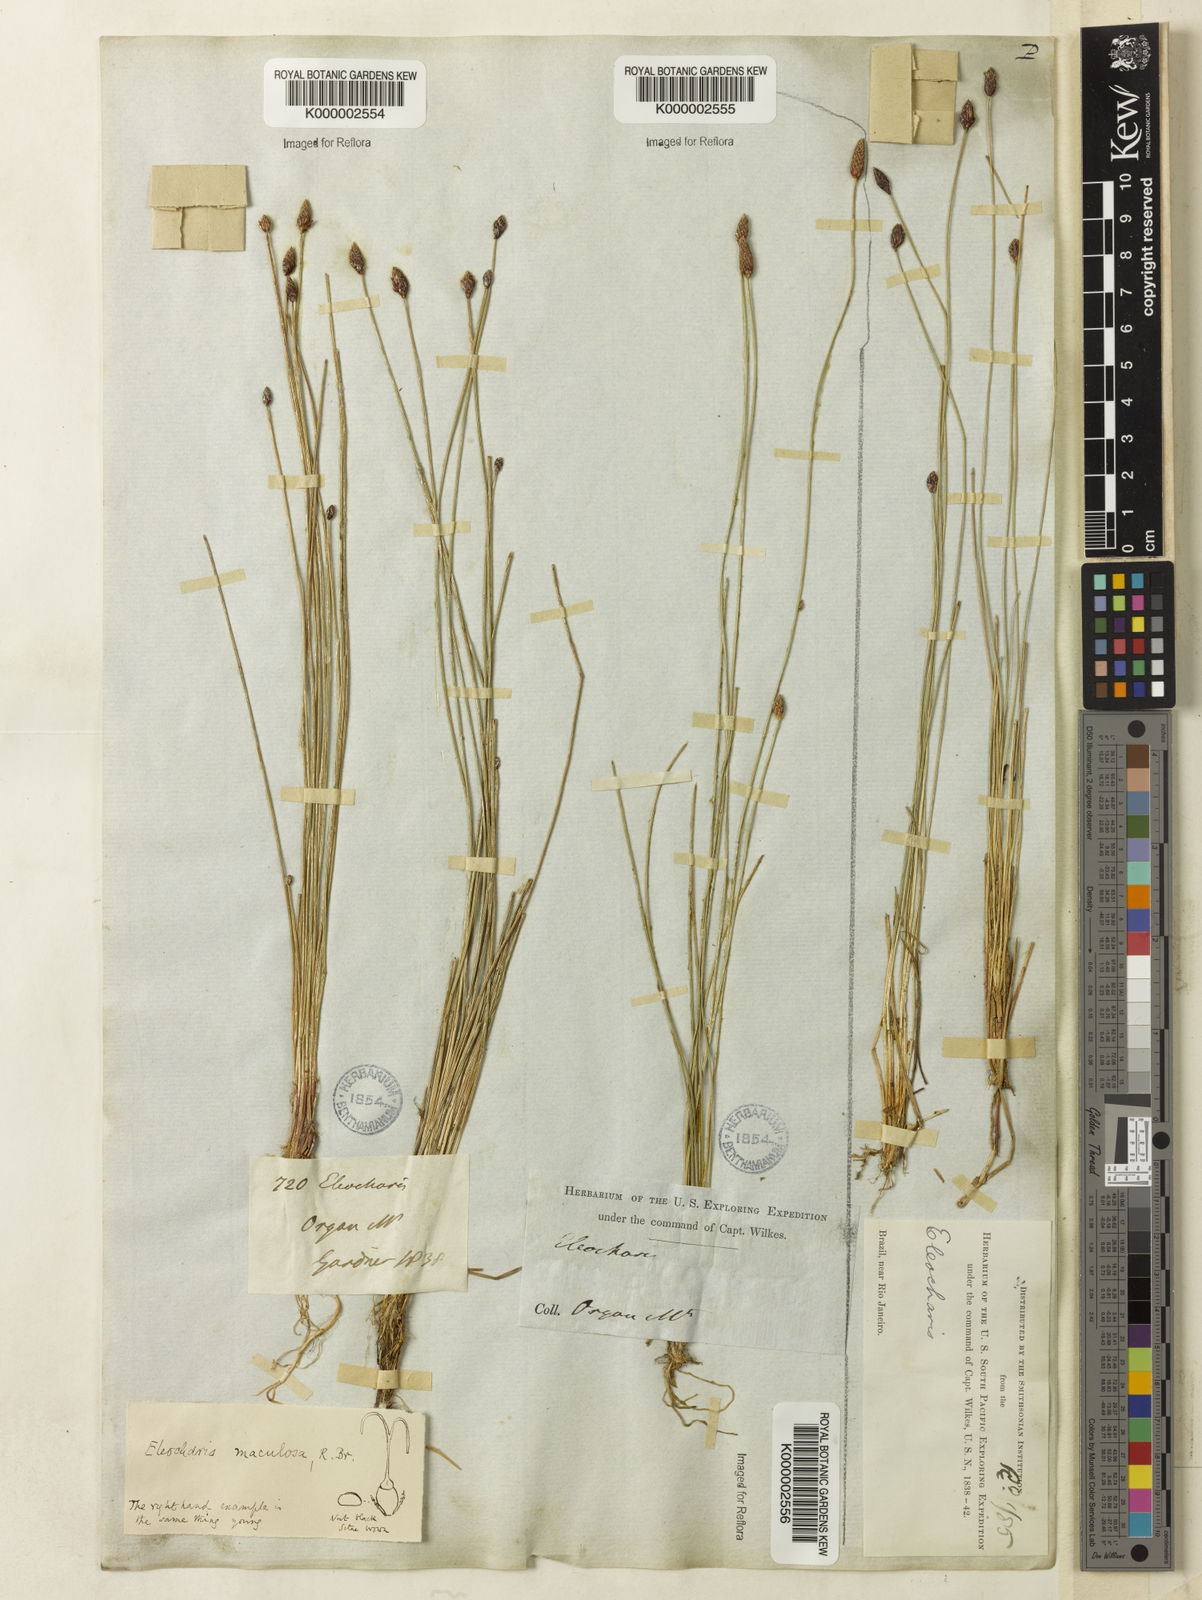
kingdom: Plantae
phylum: Tracheophyta
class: Liliopsida
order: Poales
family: Cyperaceae
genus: Eleocharis
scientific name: Eleocharis maculosa
